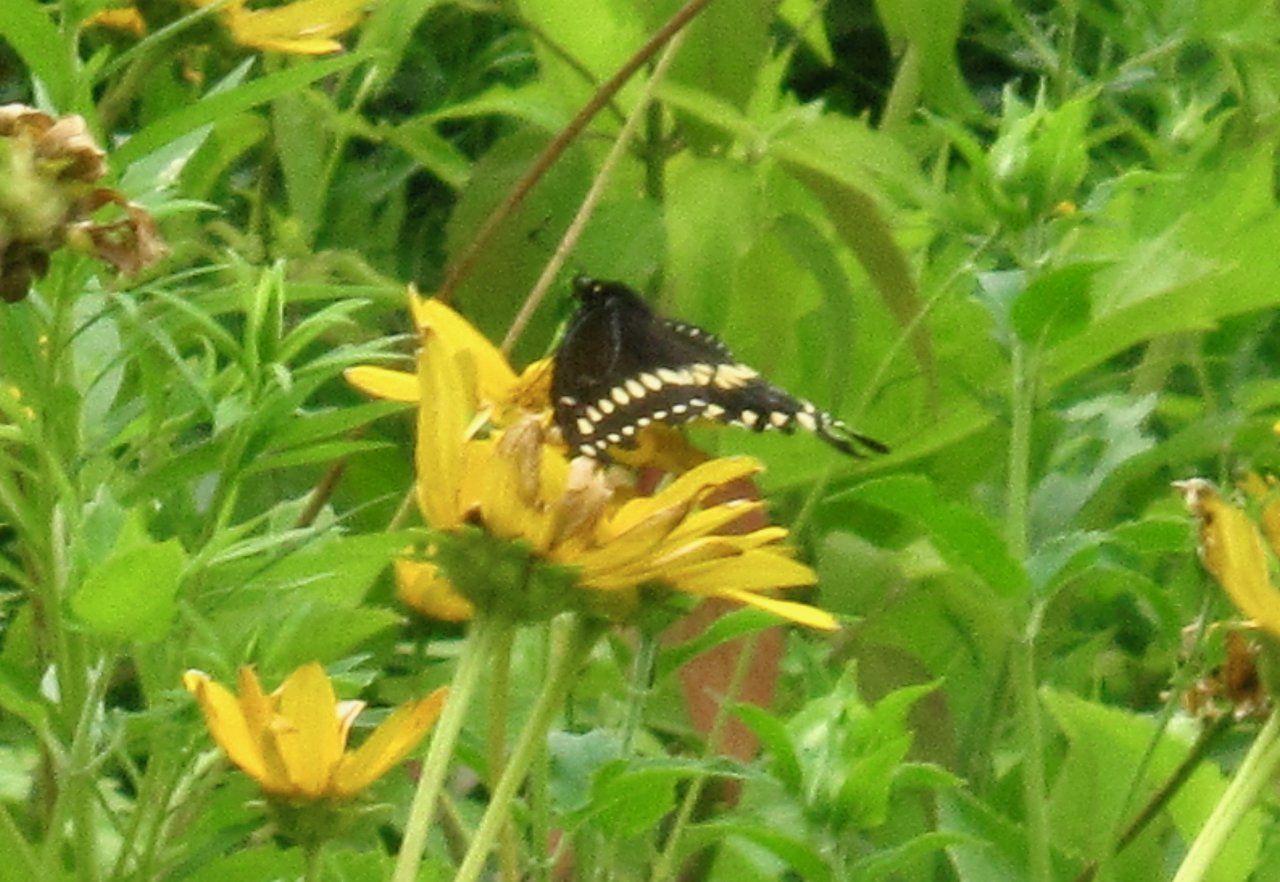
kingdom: Animalia
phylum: Arthropoda
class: Insecta
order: Lepidoptera
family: Papilionidae
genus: Papilio
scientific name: Papilio polyxenes
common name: Black Swallowtail
